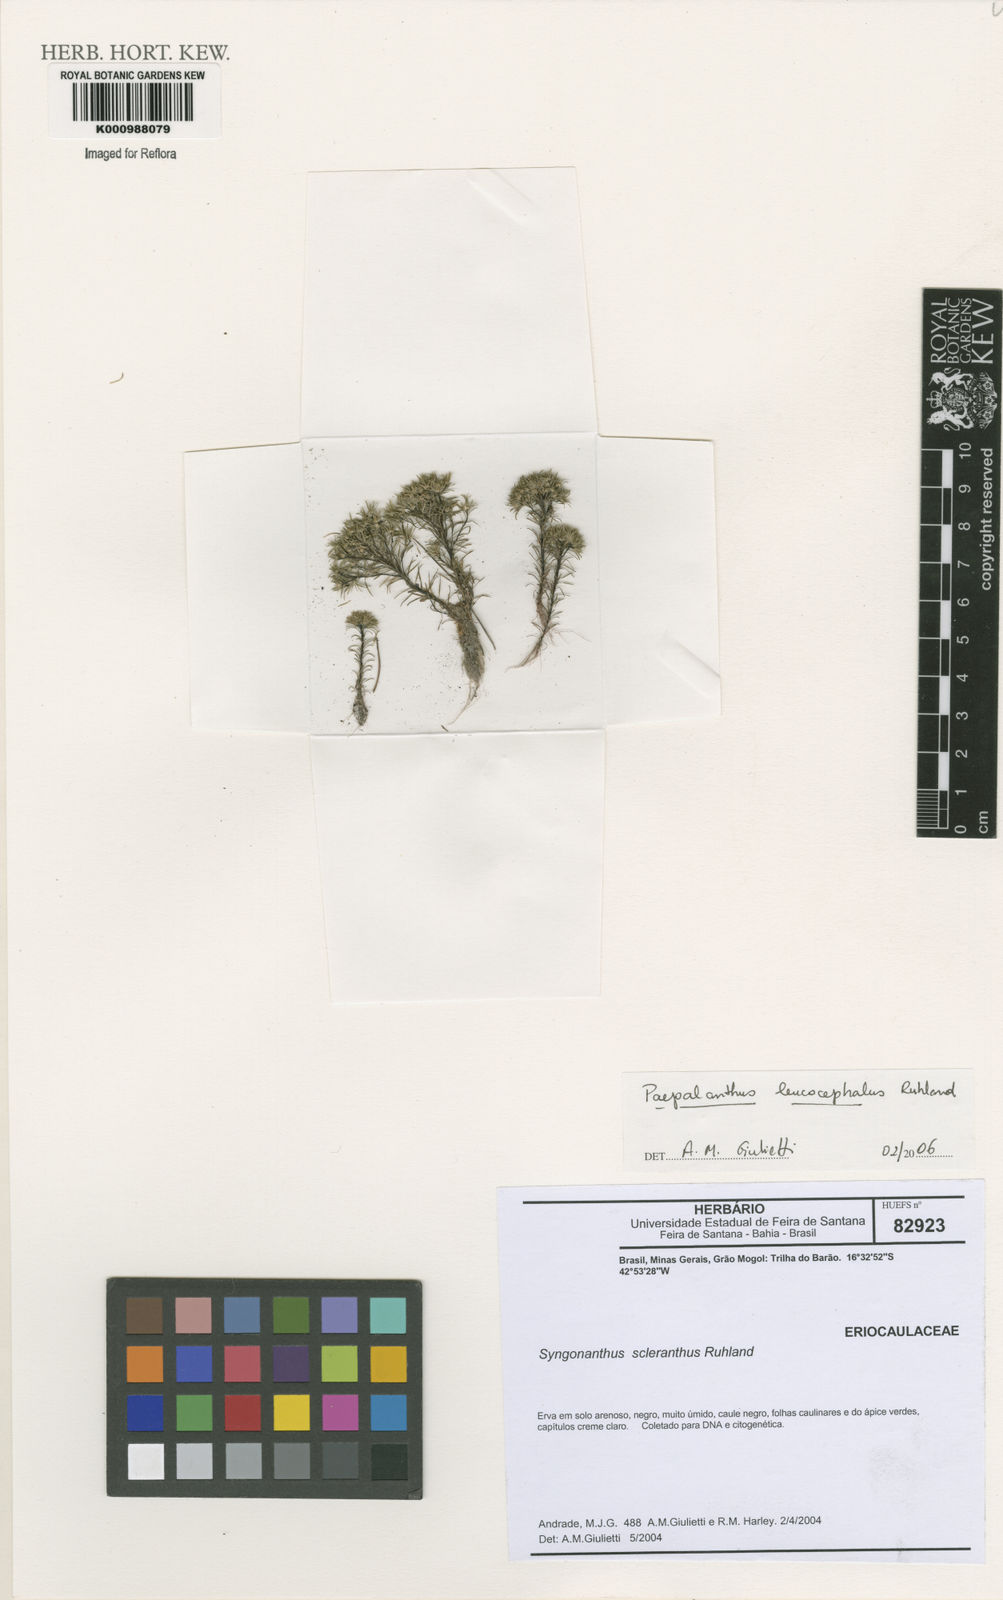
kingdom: Plantae
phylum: Tracheophyta
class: Liliopsida
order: Poales
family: Eriocaulaceae
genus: Paepalanthus
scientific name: Paepalanthus leucocephalus
